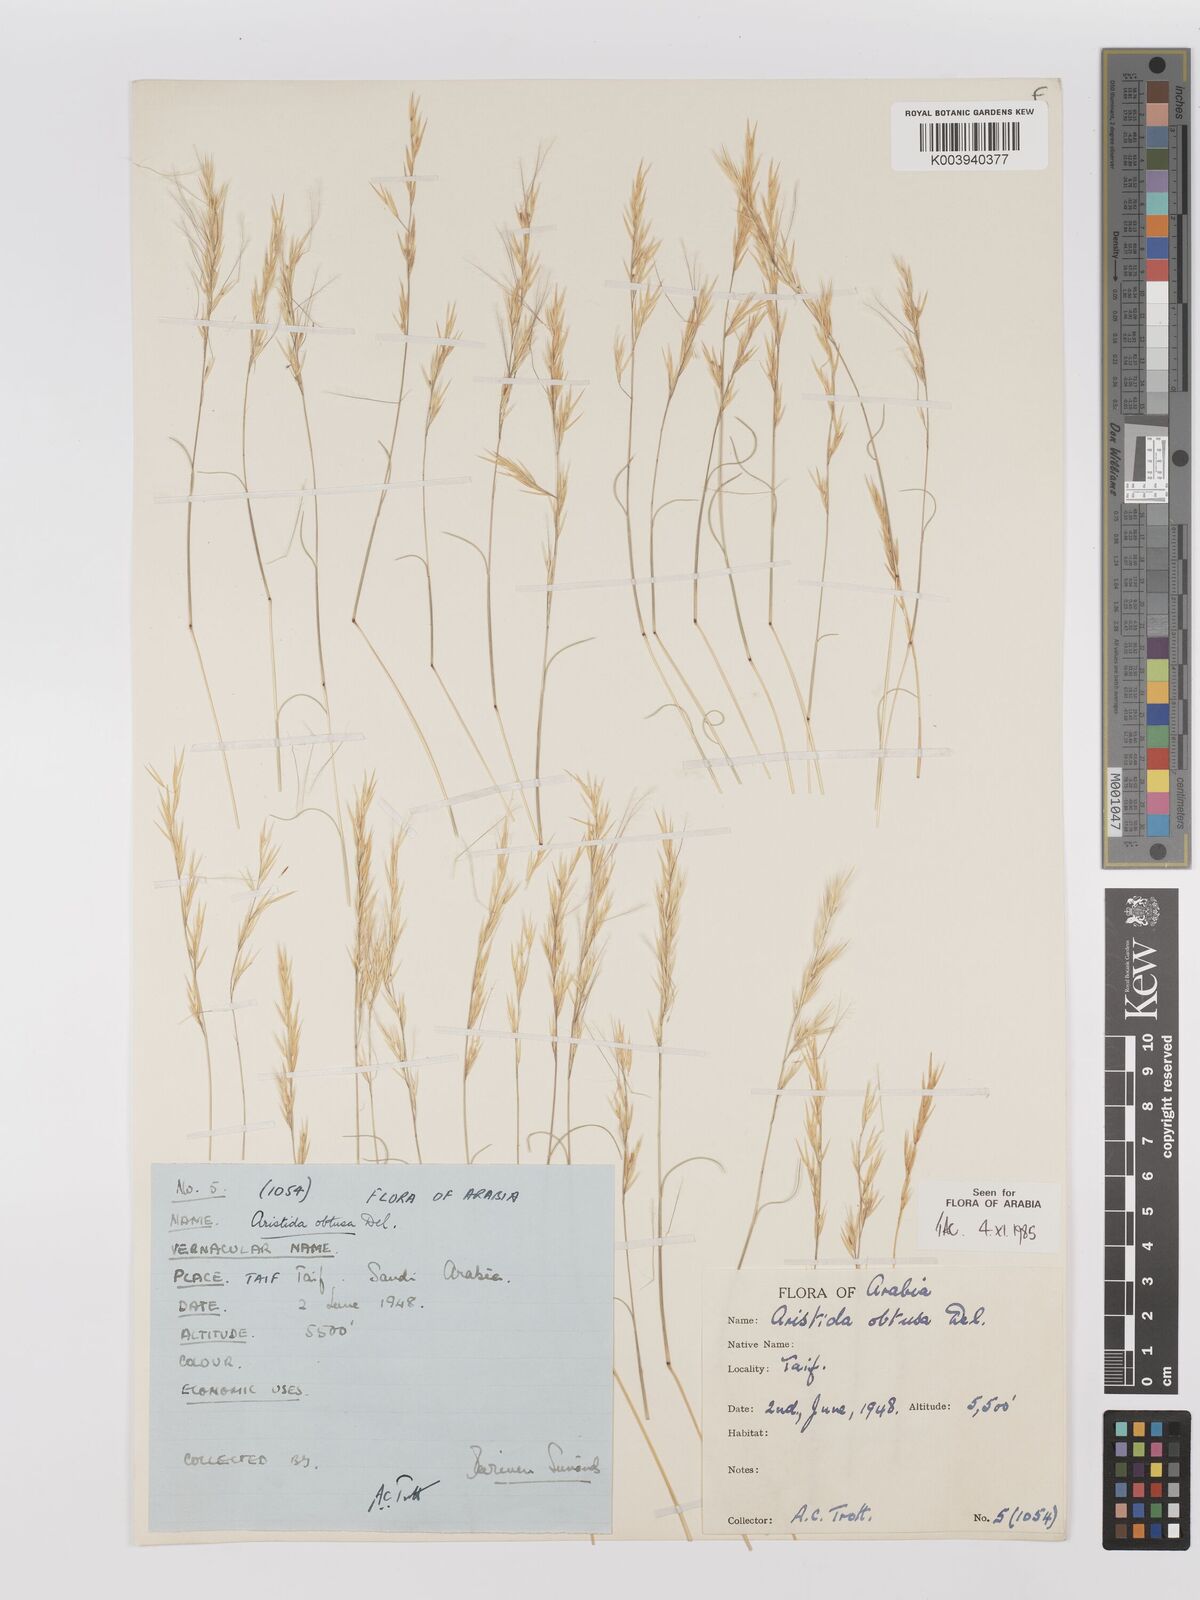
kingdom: Plantae
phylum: Tracheophyta
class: Liliopsida
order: Poales
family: Poaceae
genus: Stipagrostis
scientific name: Stipagrostis obtusa
